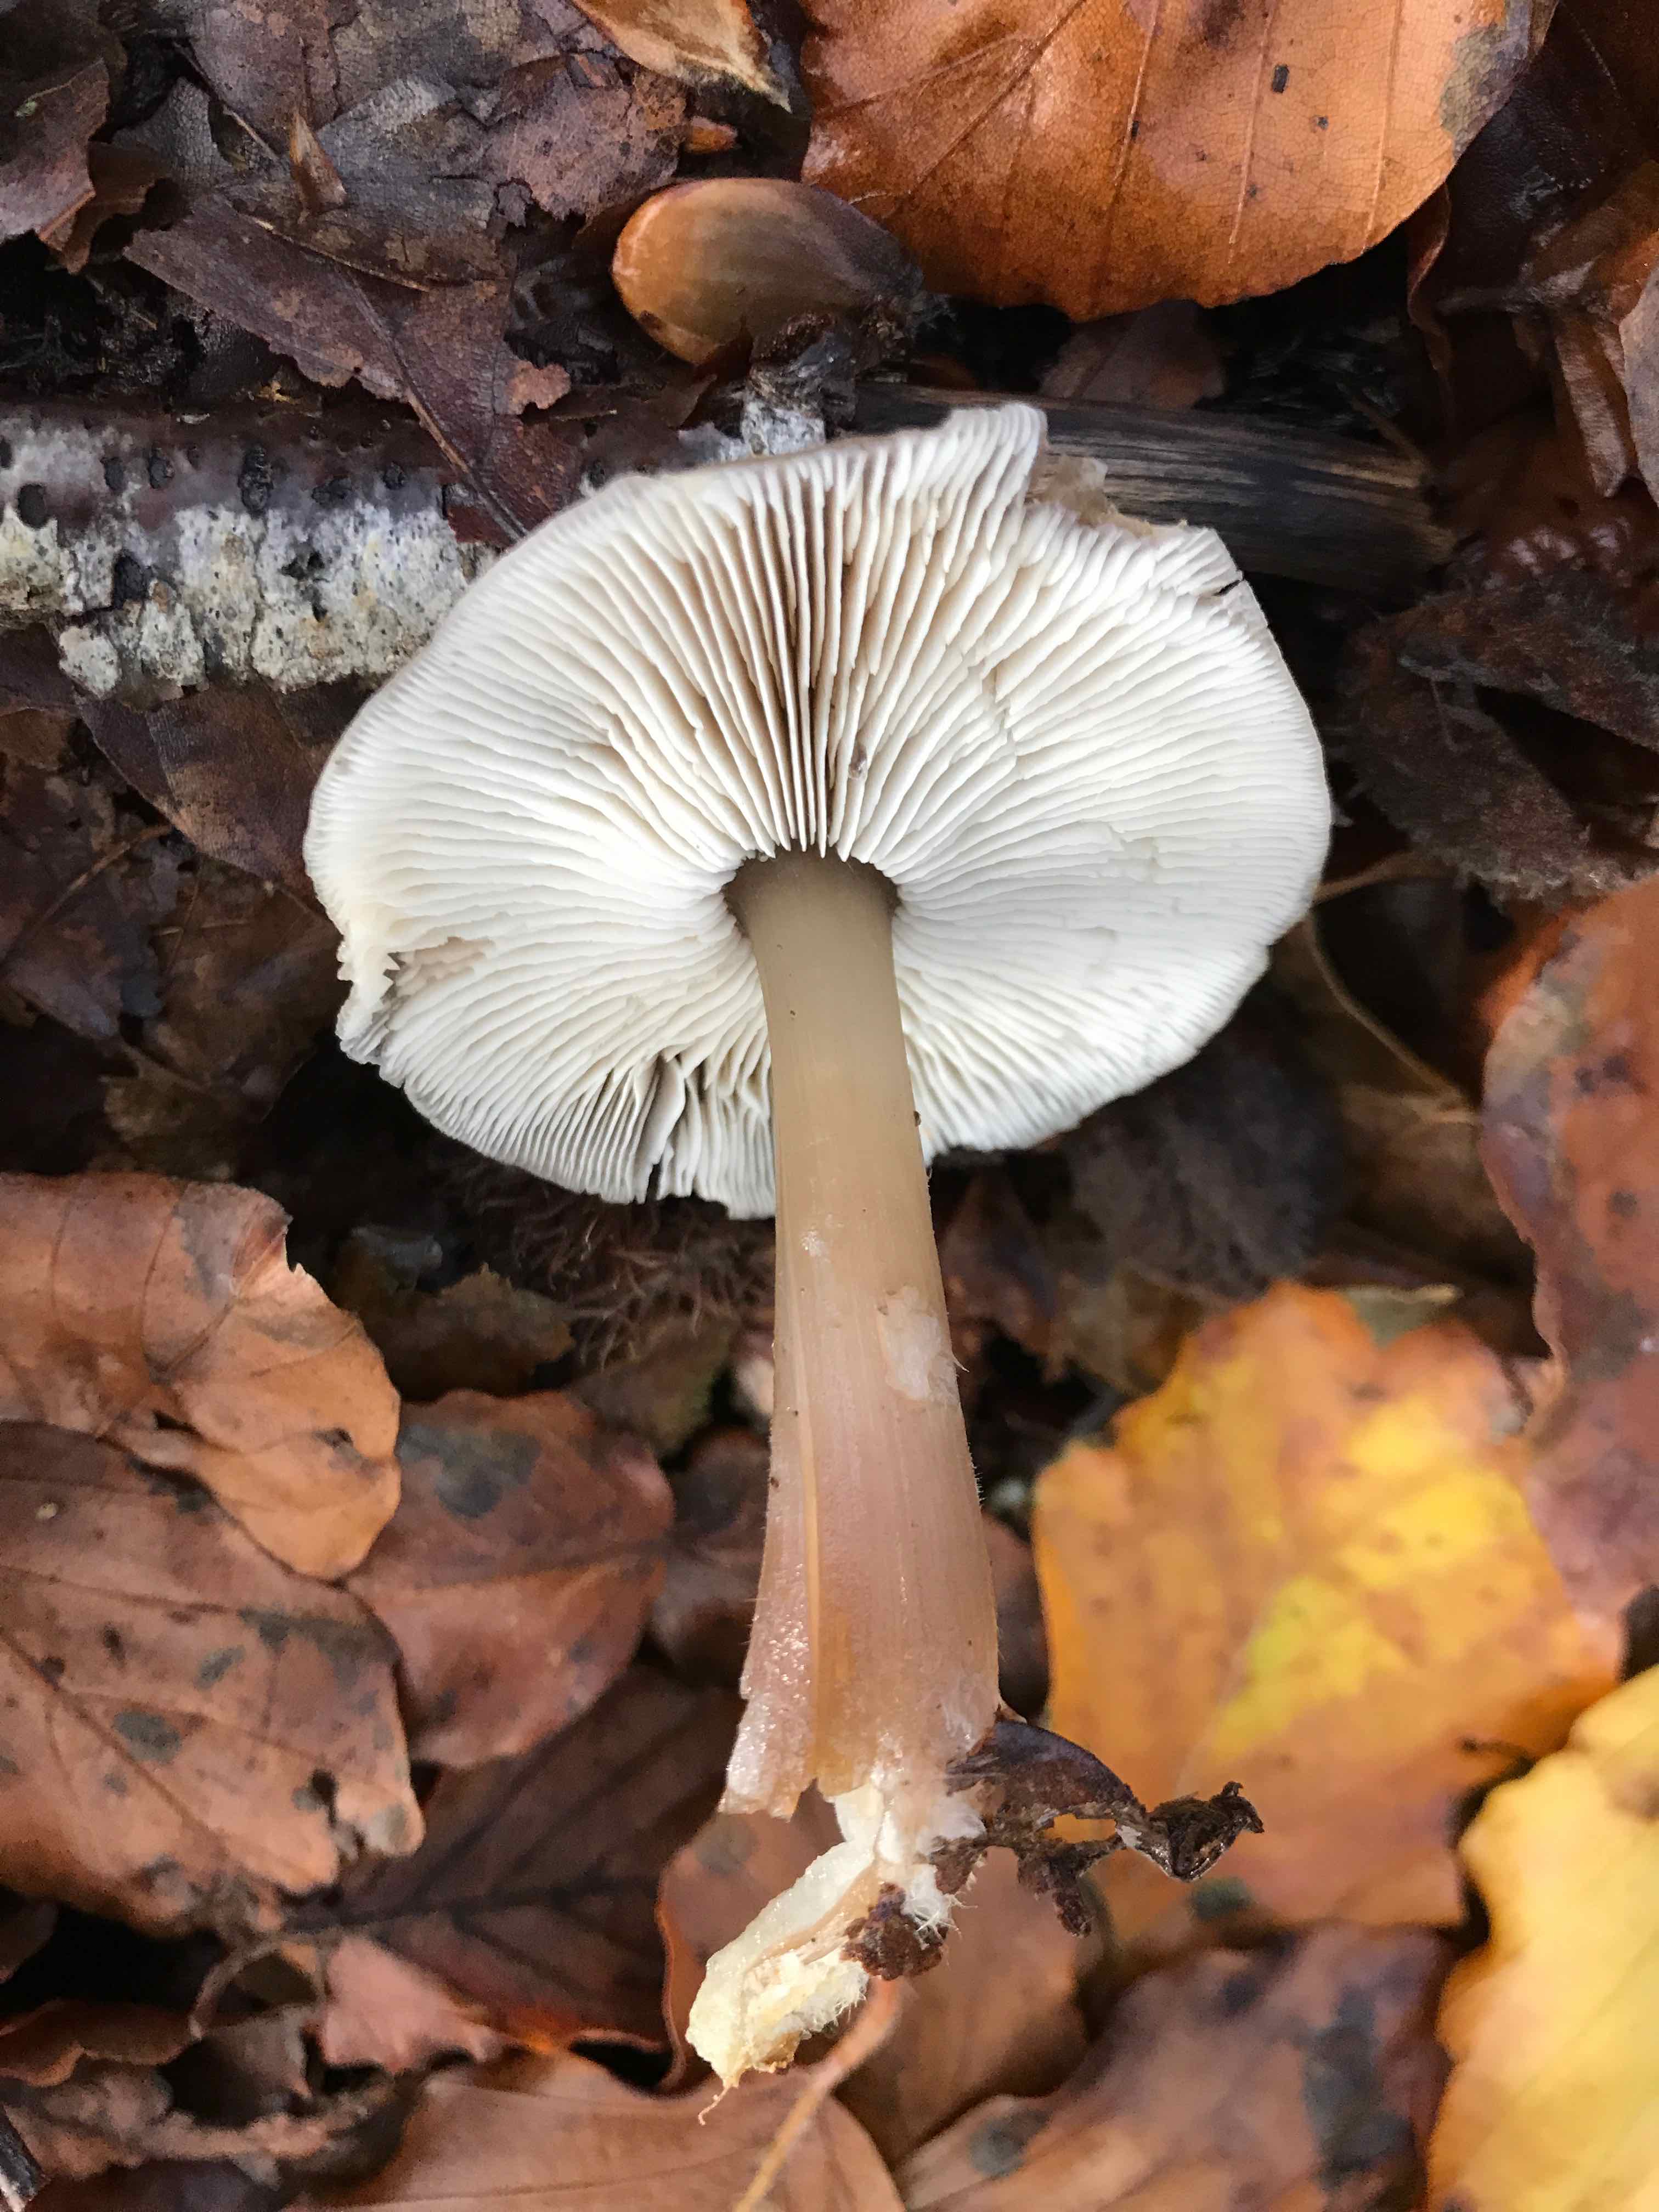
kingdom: Fungi
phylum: Basidiomycota
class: Agaricomycetes
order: Agaricales
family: Omphalotaceae
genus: Rhodocollybia
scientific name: Rhodocollybia asema
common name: horngrå fladhat
